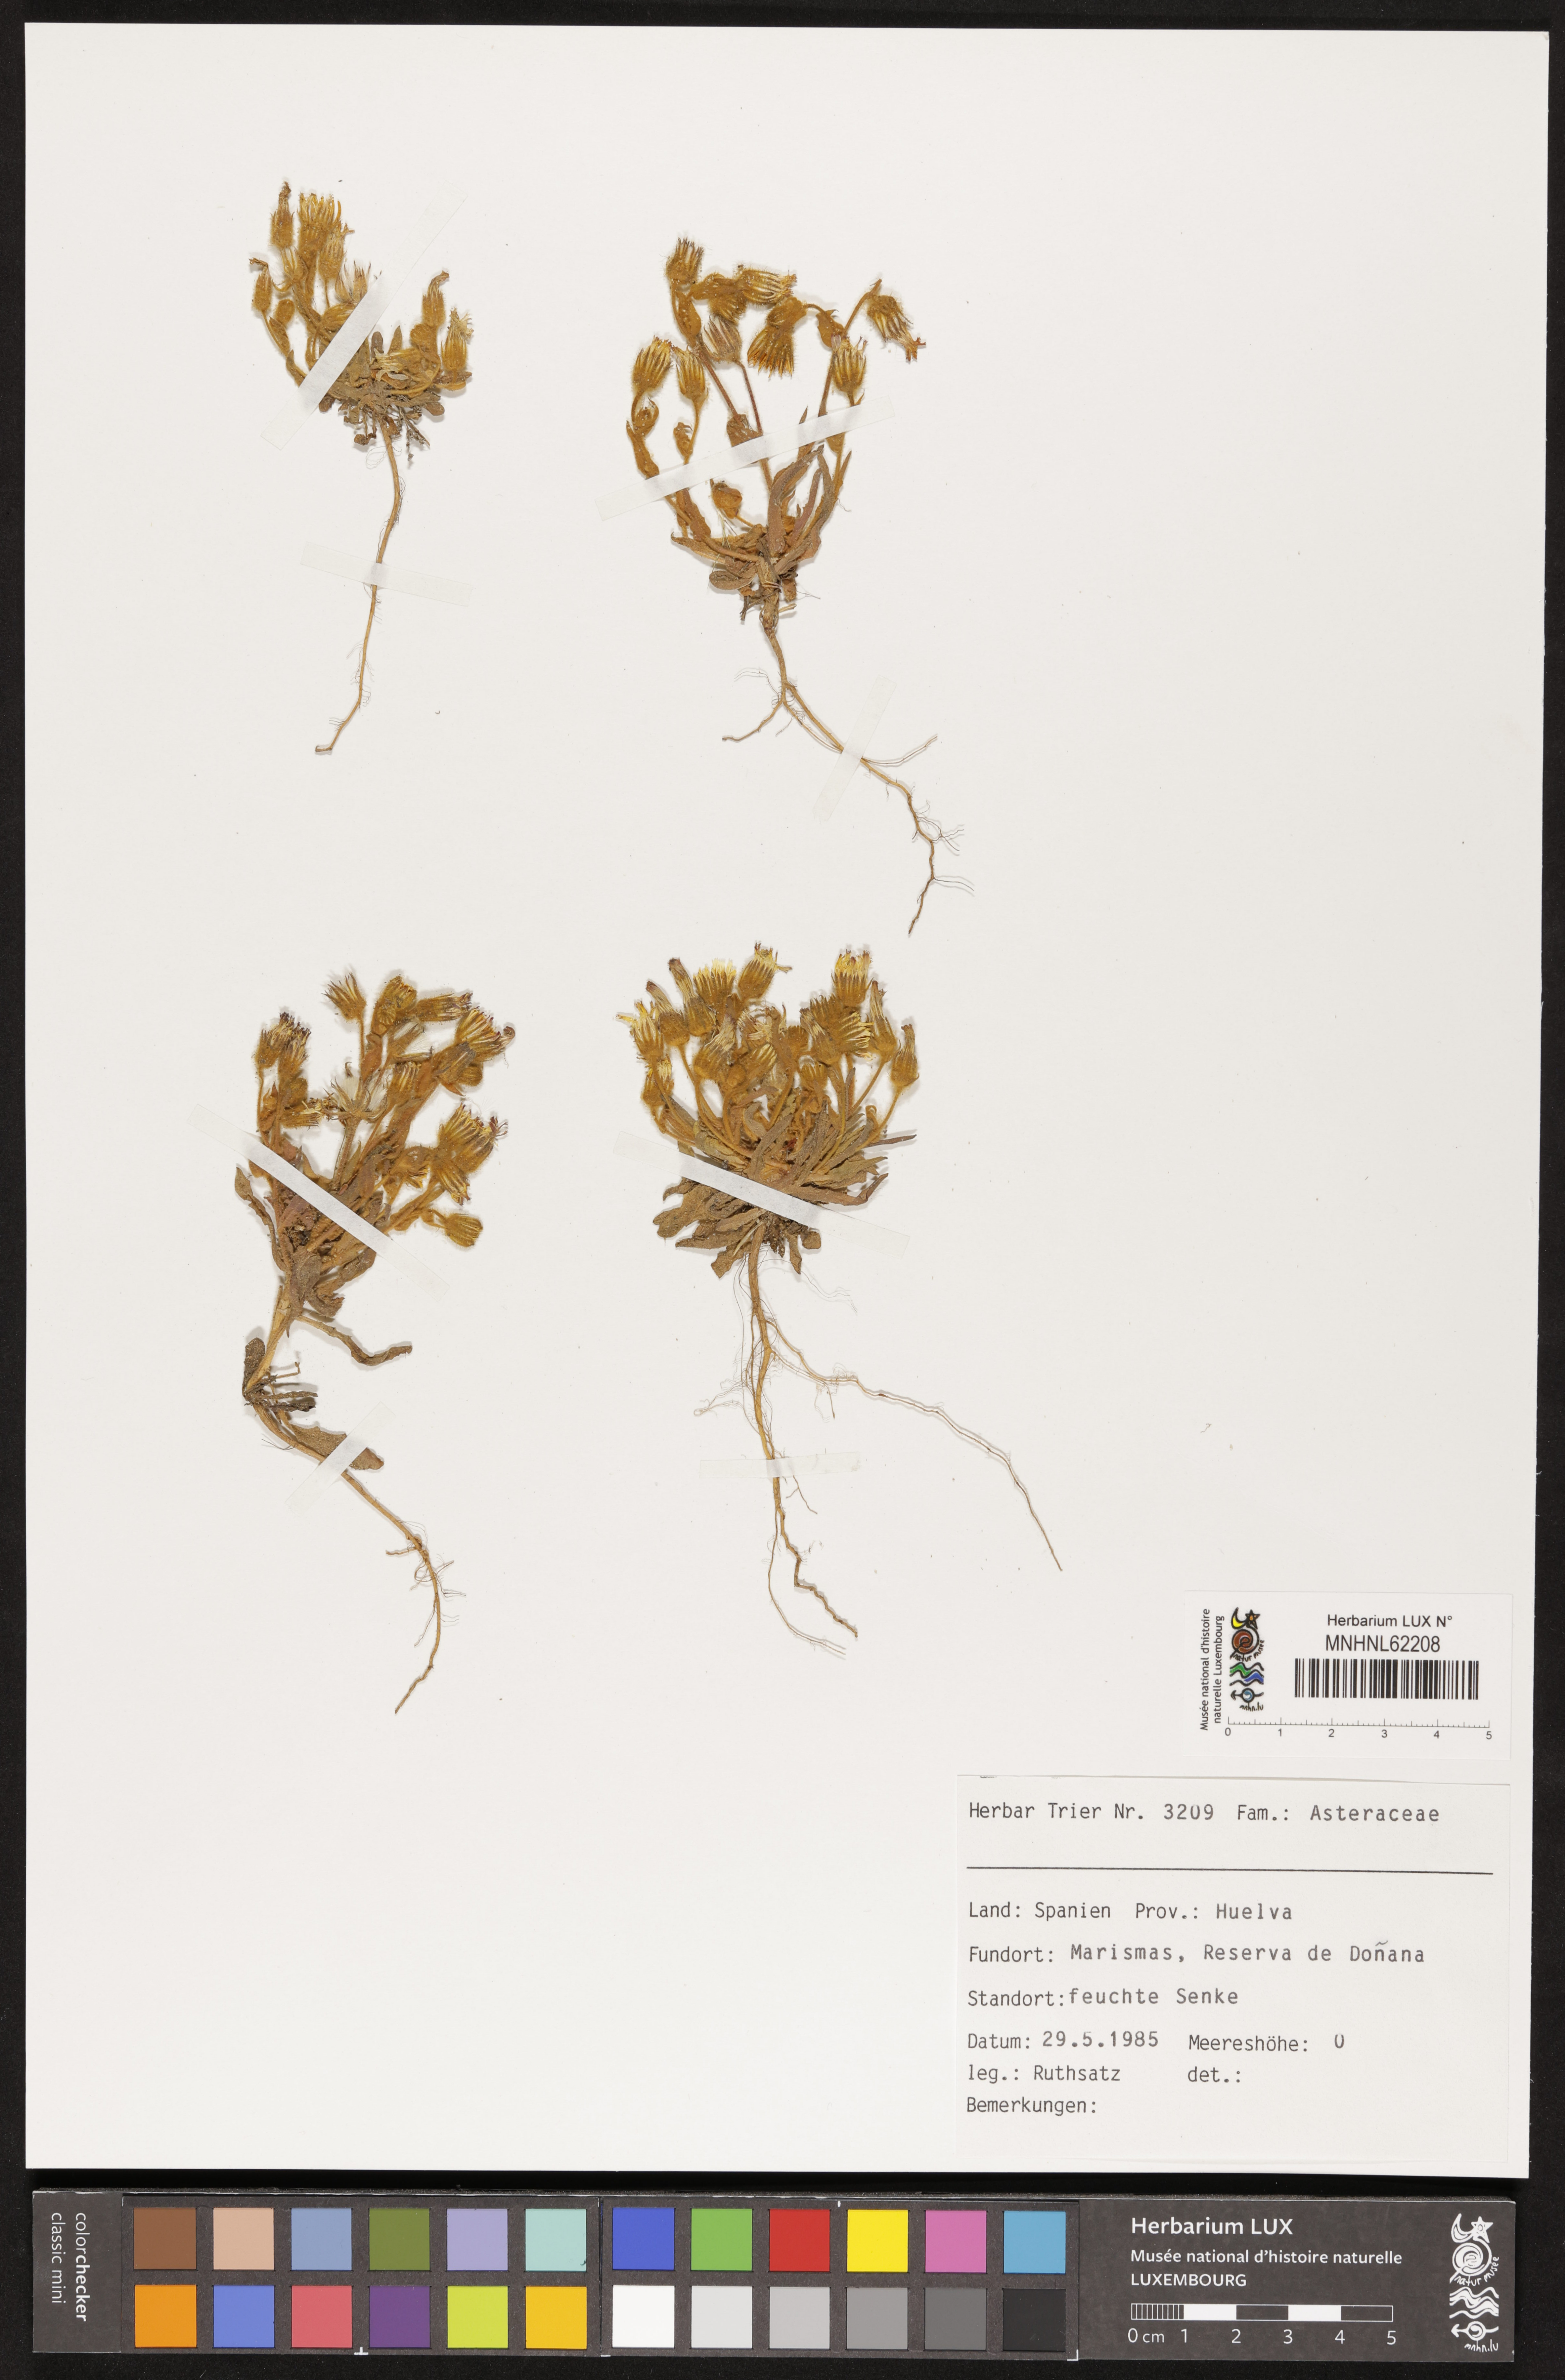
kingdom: Plantae
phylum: Tracheophyta
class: Magnoliopsida
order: Asterales
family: Asteraceae
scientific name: Asteraceae
